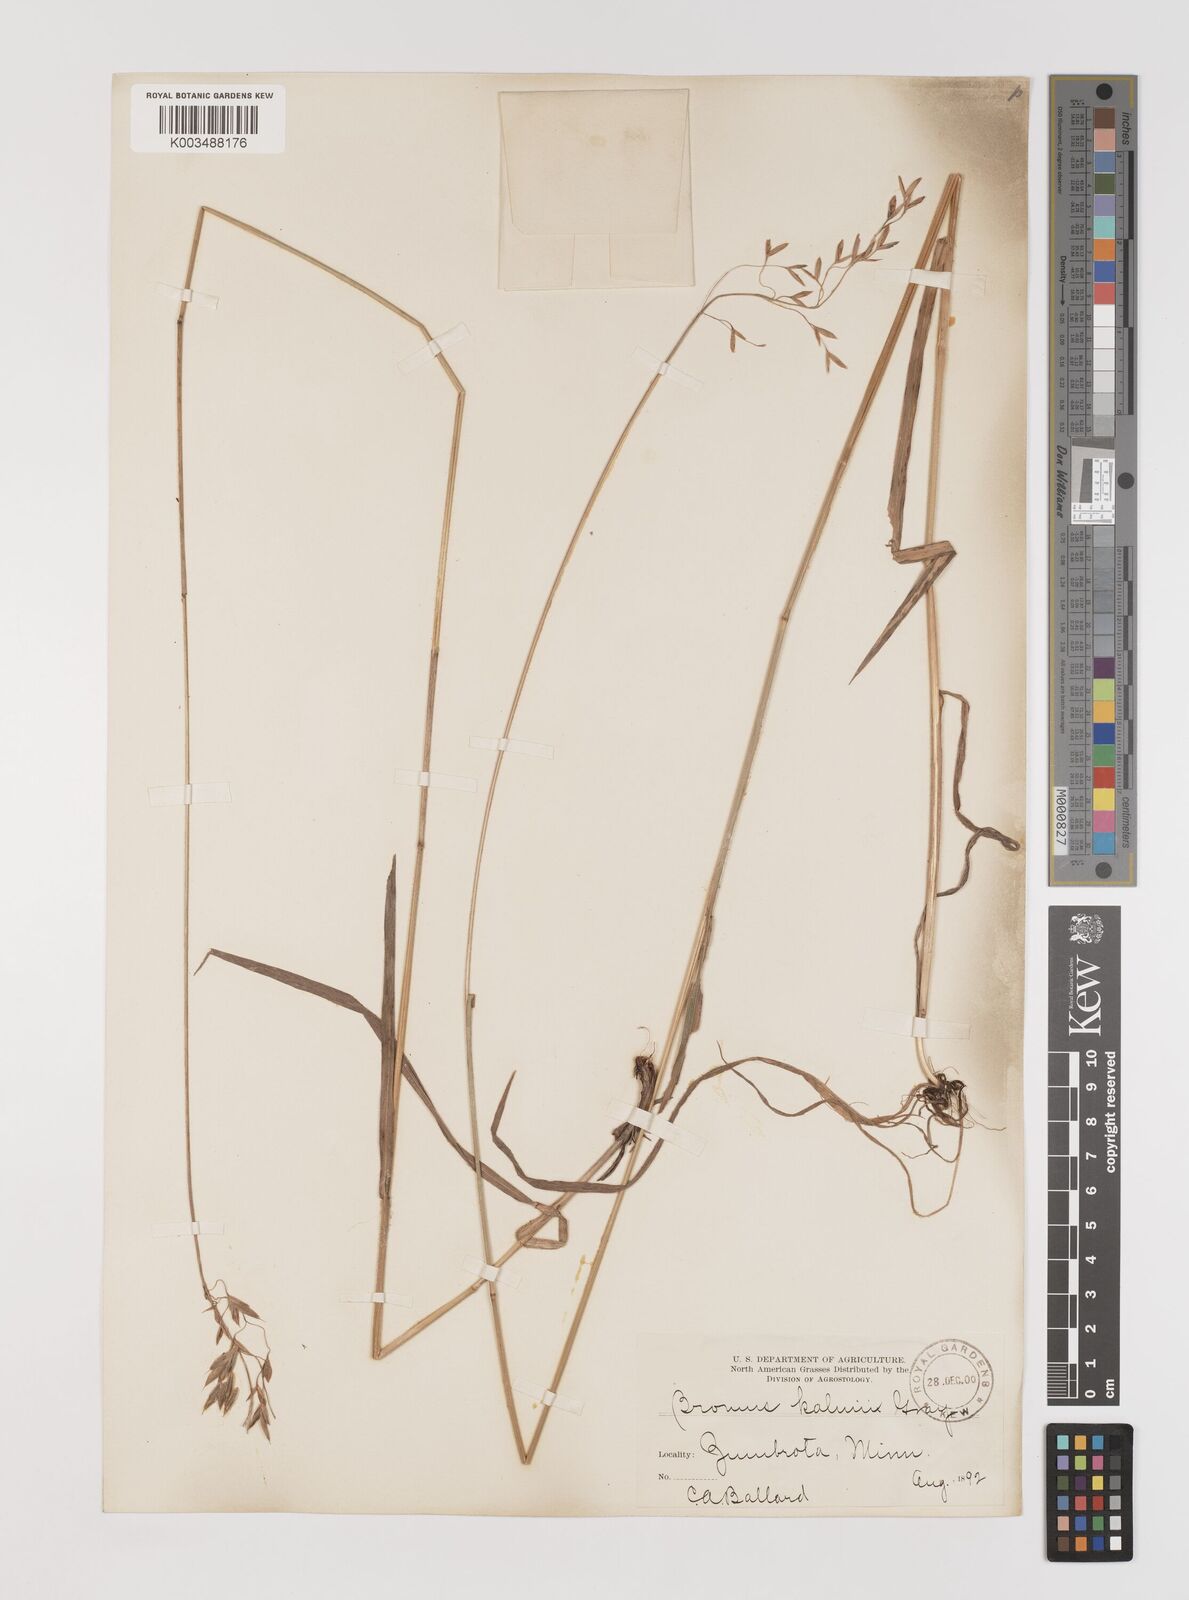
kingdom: Plantae
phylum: Tracheophyta
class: Liliopsida
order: Poales
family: Poaceae
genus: Bromus
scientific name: Bromus kalmii
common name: Kalm brome
